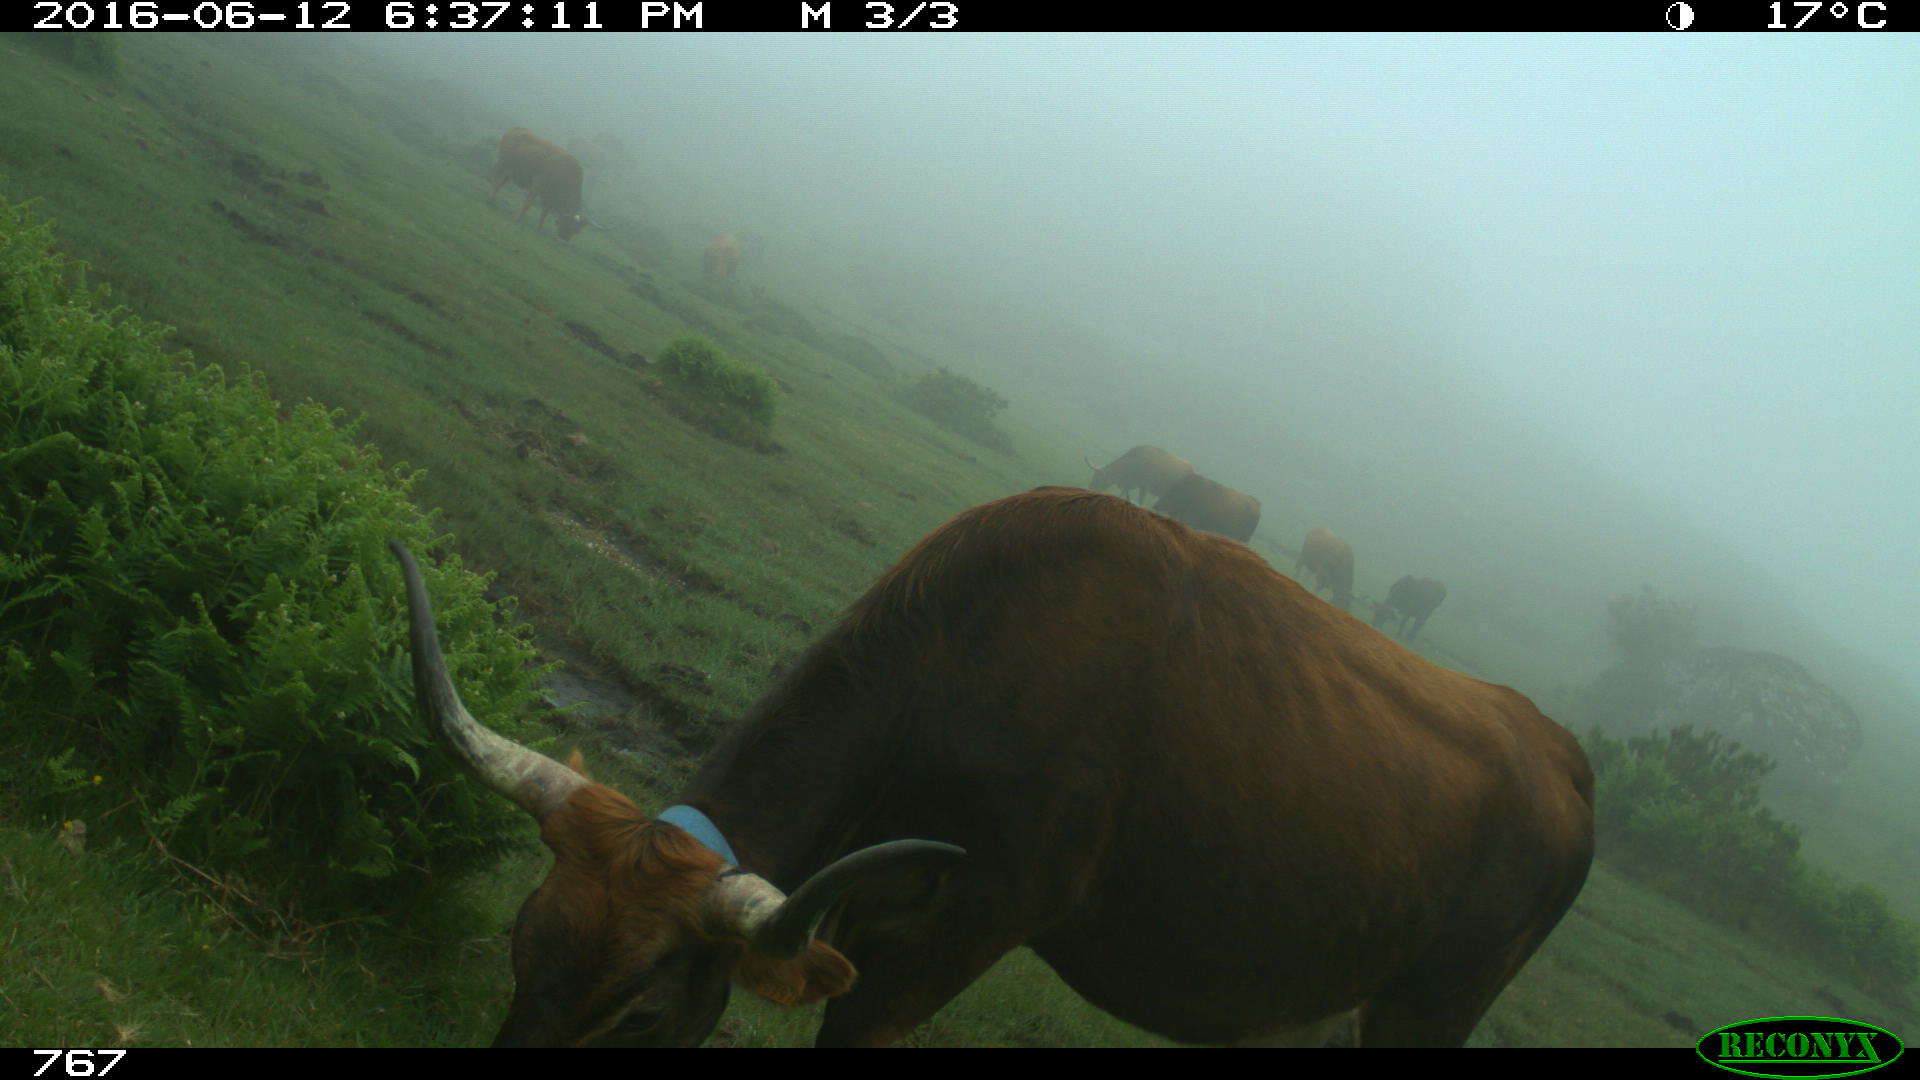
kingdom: Animalia
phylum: Chordata
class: Mammalia
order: Artiodactyla
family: Bovidae
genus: Bos
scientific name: Bos taurus
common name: Domesticated cattle
